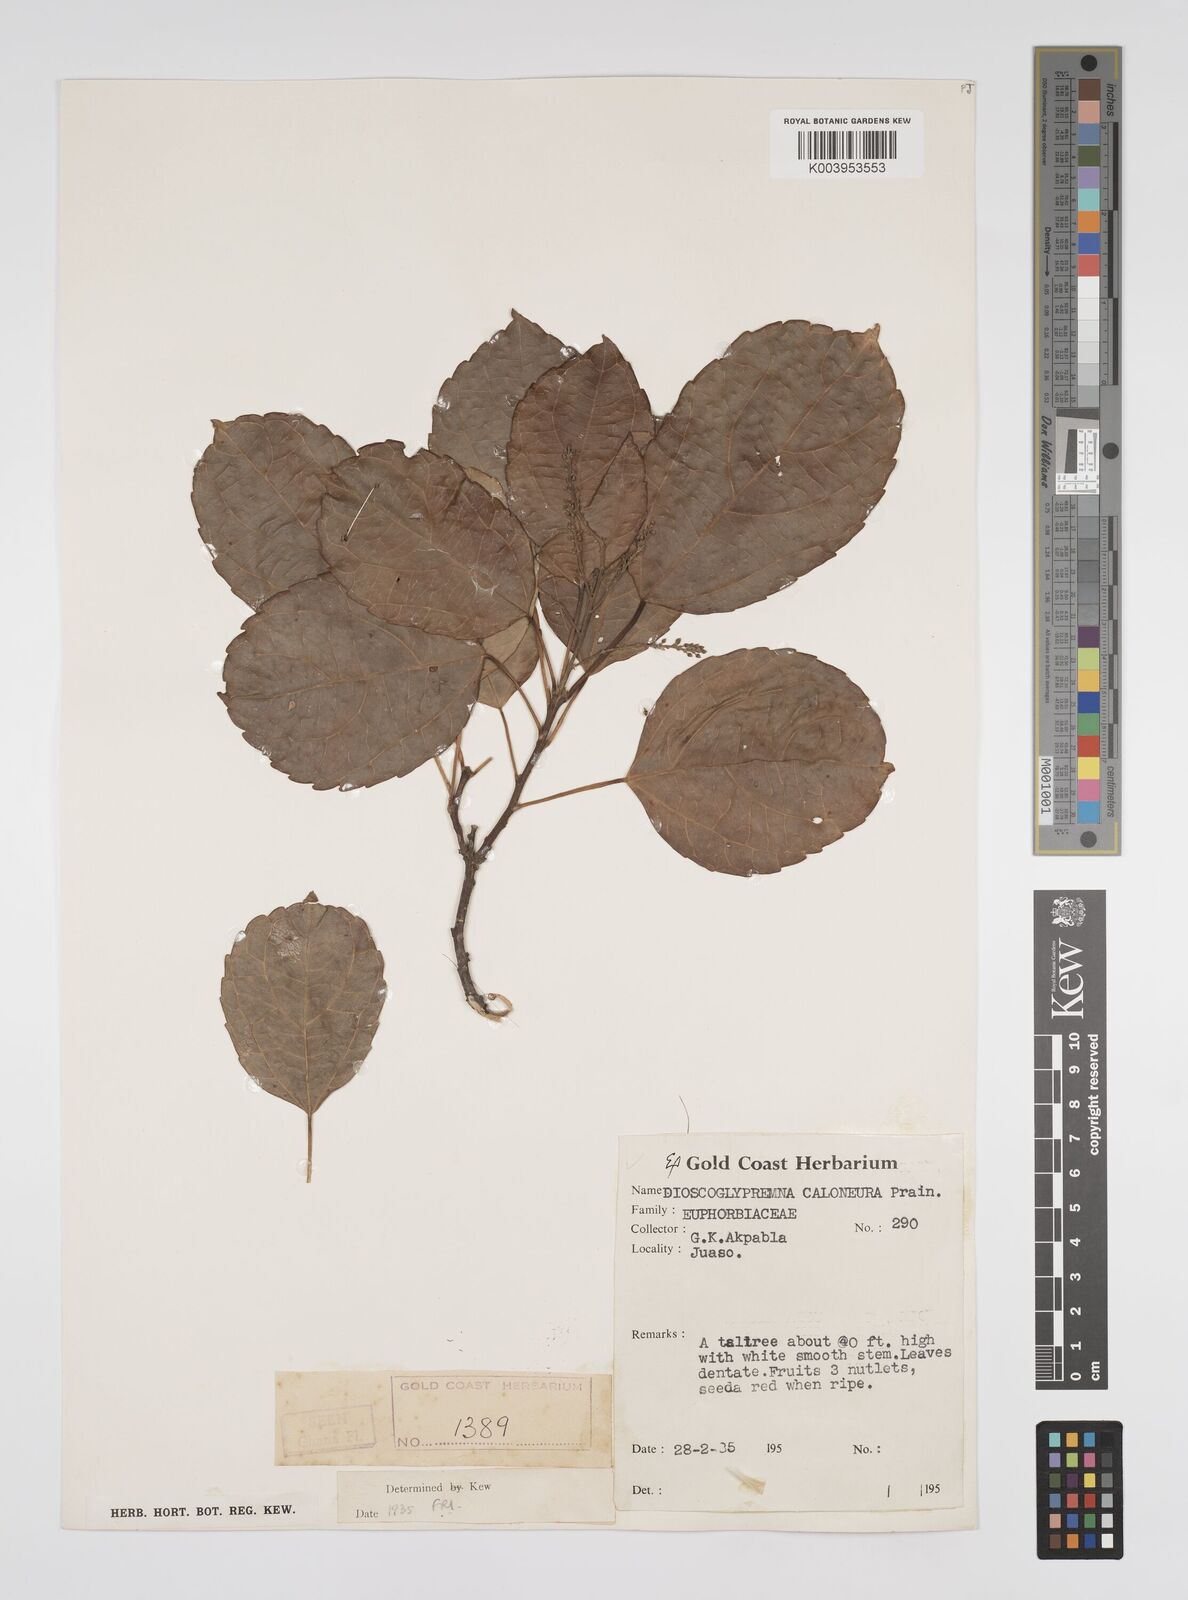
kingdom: Plantae
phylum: Tracheophyta
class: Magnoliopsida
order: Malpighiales
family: Euphorbiaceae
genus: Discoglypremna
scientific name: Discoglypremna caloneura
